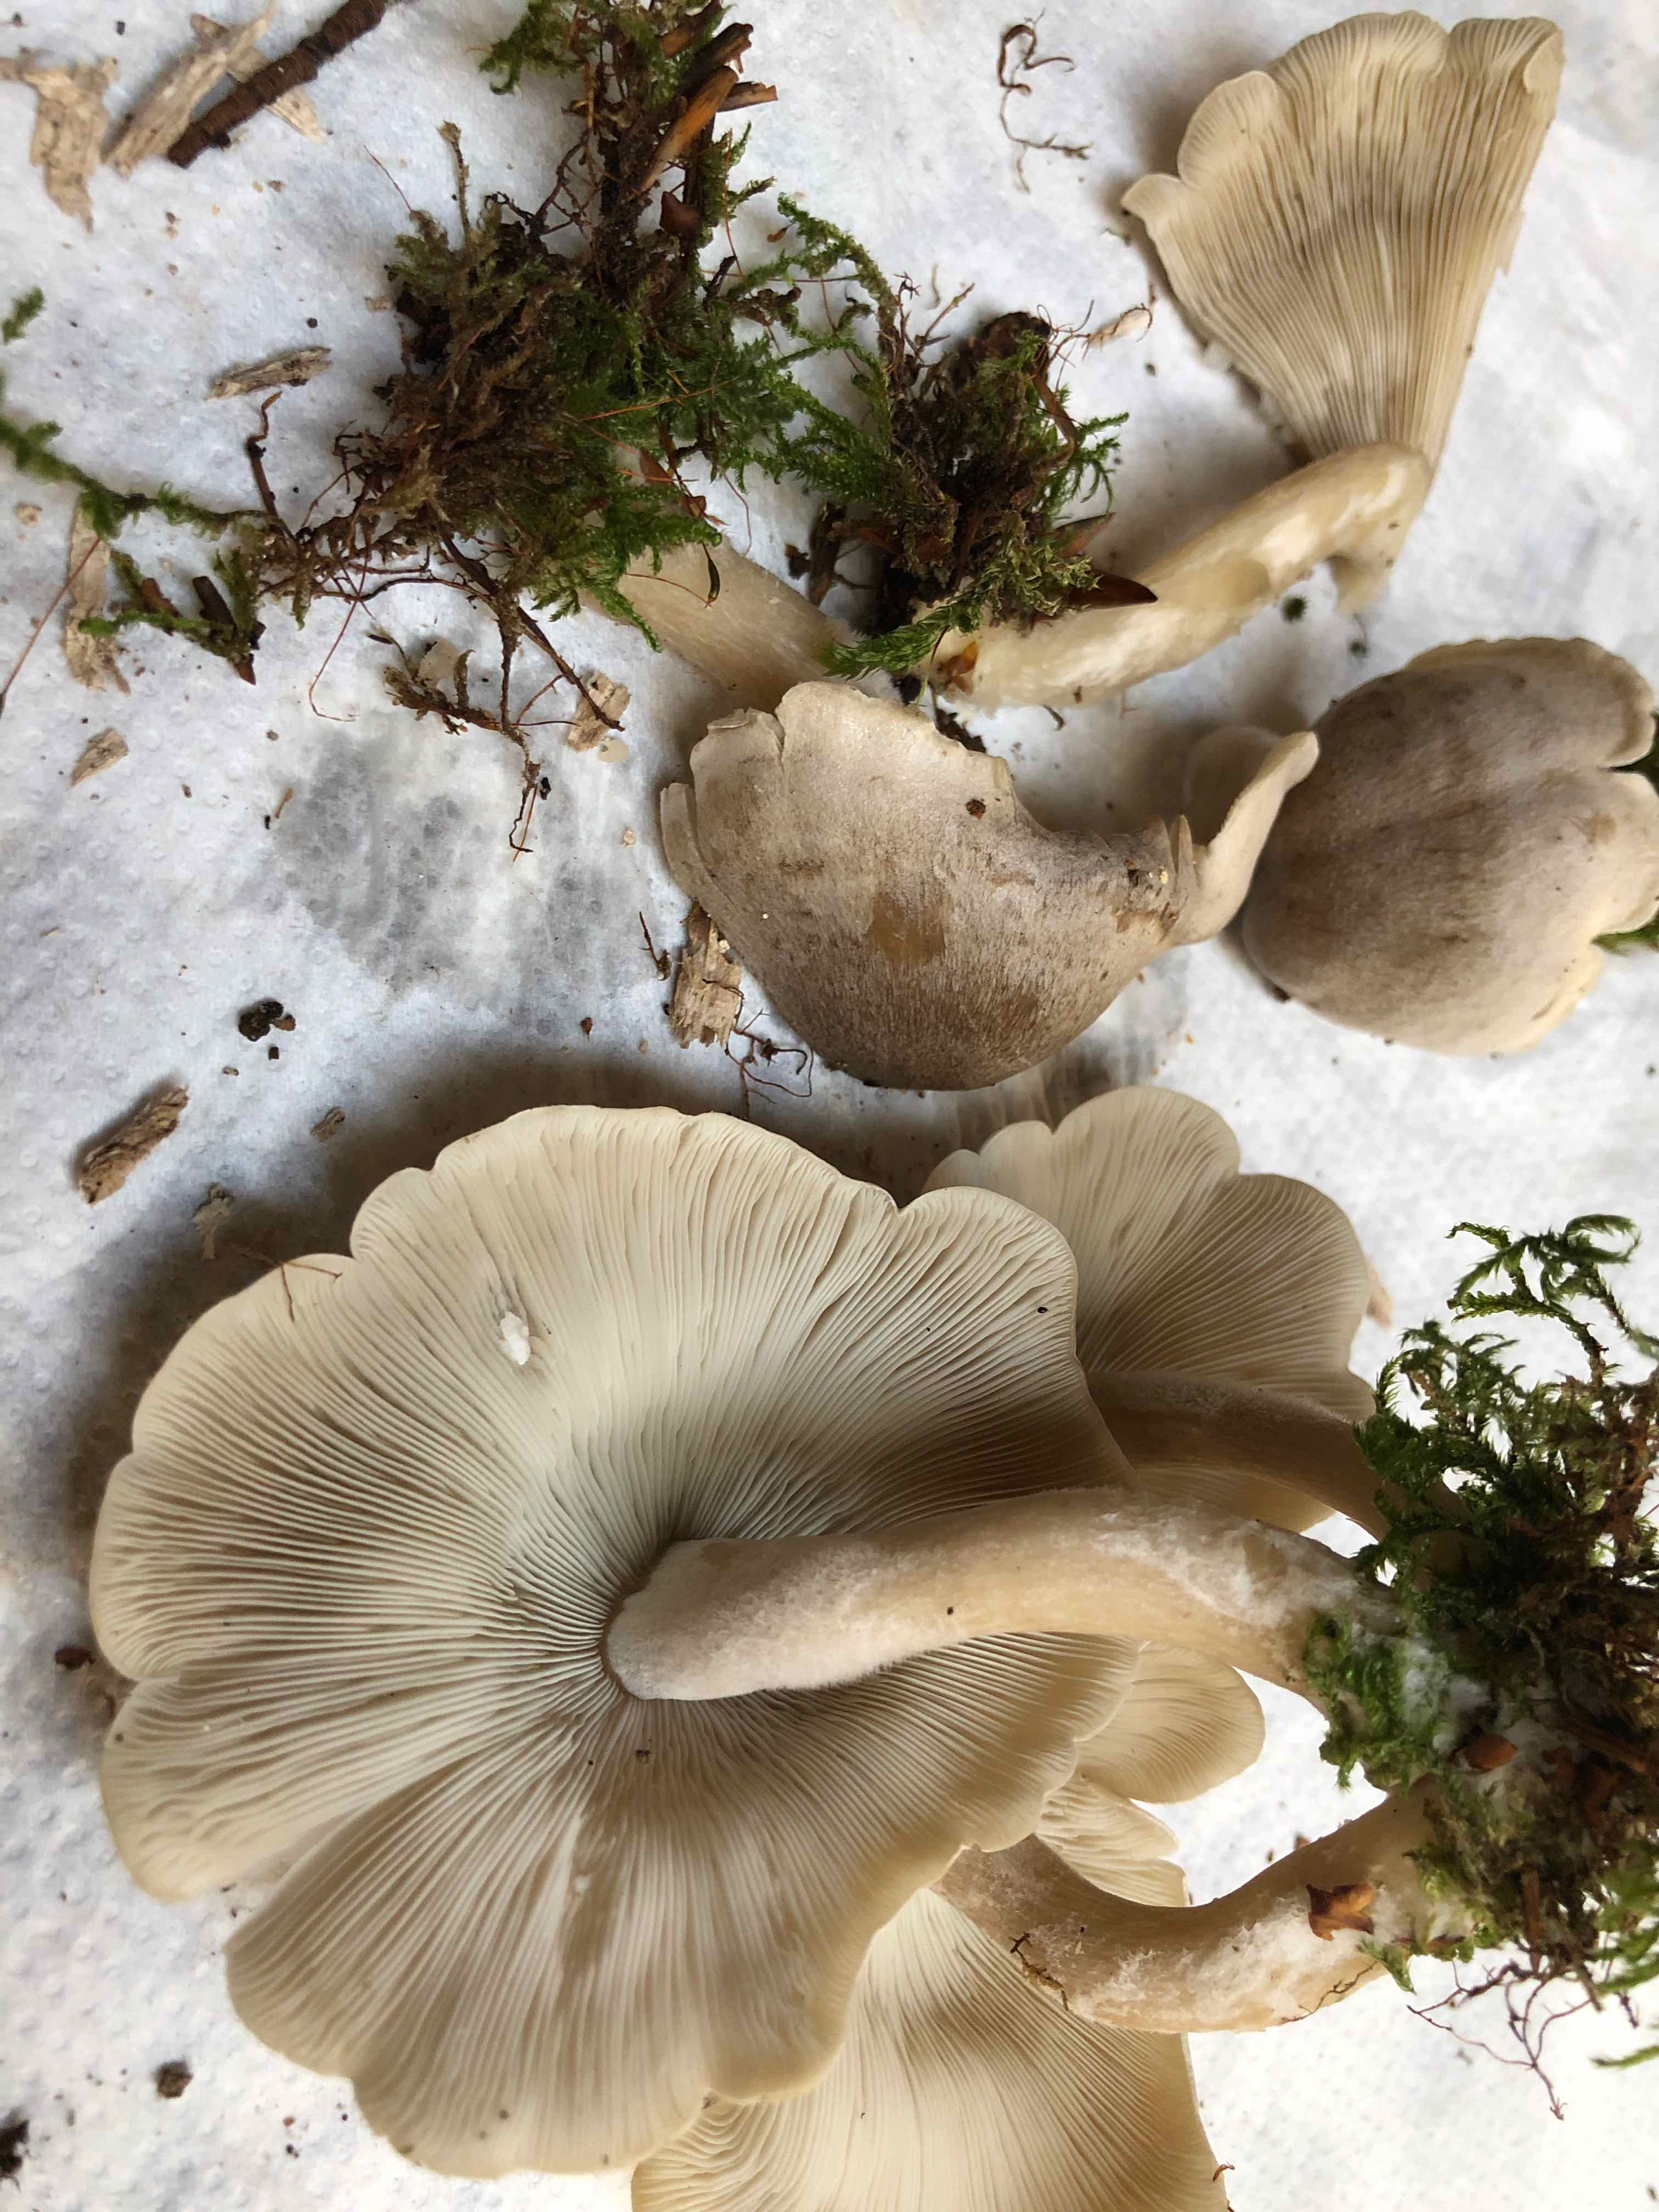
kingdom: Fungi
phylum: Basidiomycota
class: Agaricomycetes
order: Agaricales
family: Lyophyllaceae
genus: Ossicaulis
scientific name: Ossicaulis lachnopus
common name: småsporet vedtragthat
